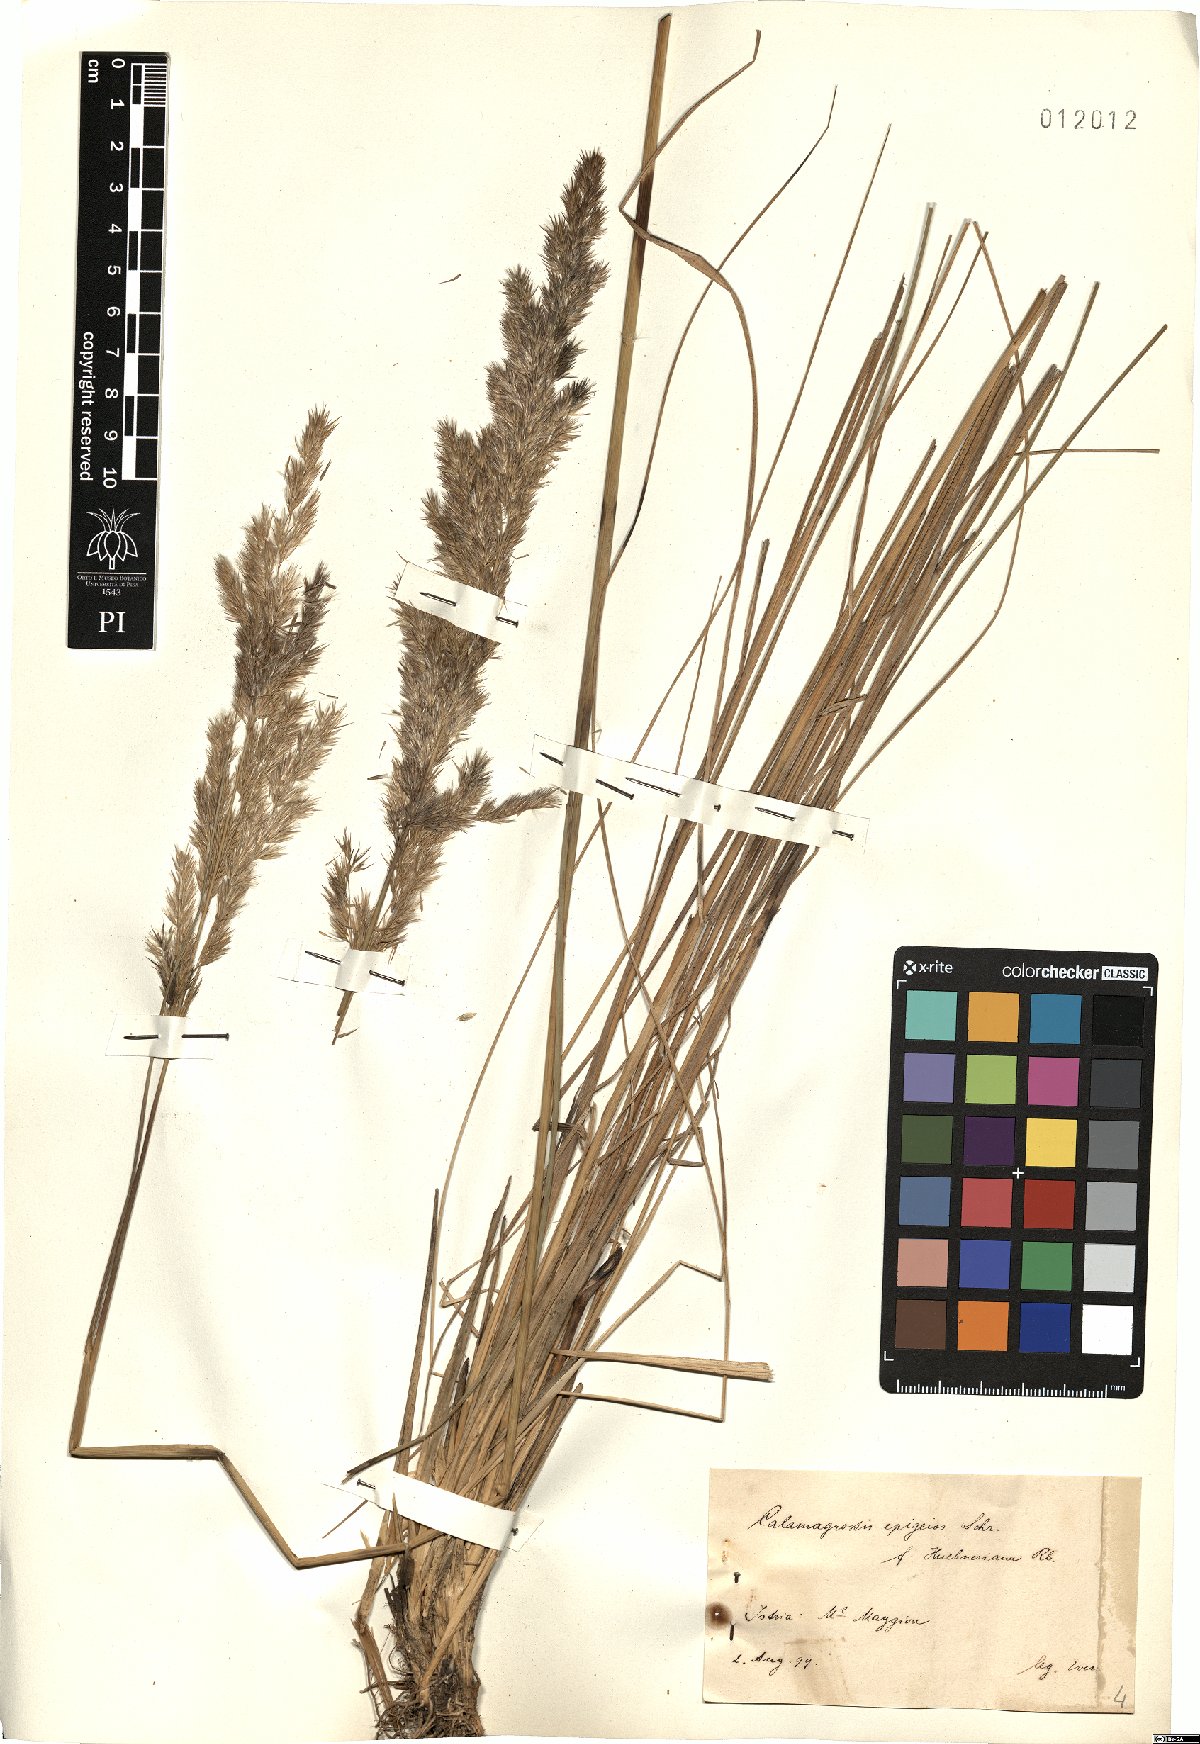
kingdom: Plantae
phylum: Tracheophyta
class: Liliopsida
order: Poales
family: Poaceae
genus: Calamagrostis
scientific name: Calamagrostis epigejos
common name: Wood small-reed
